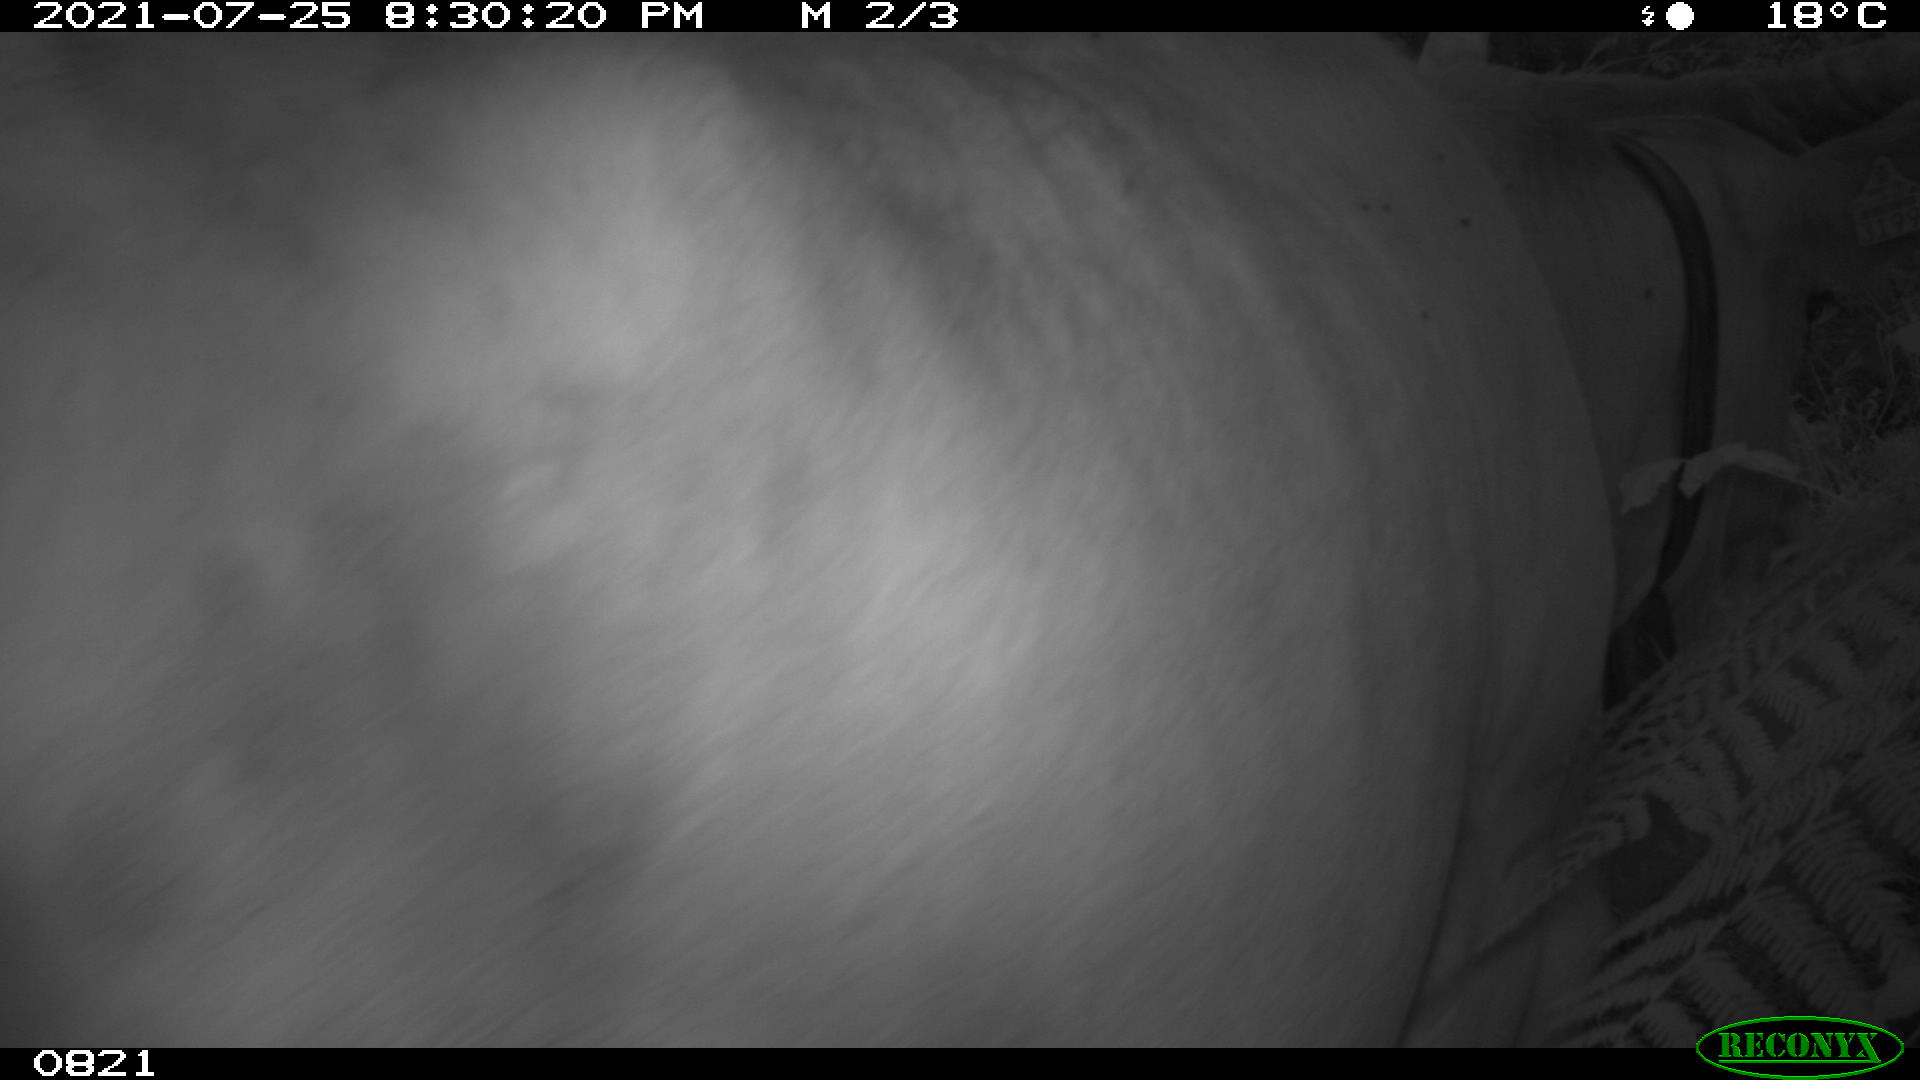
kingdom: Animalia
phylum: Chordata
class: Mammalia
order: Artiodactyla
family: Bovidae
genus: Bos
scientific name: Bos taurus
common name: Domesticated cattle
